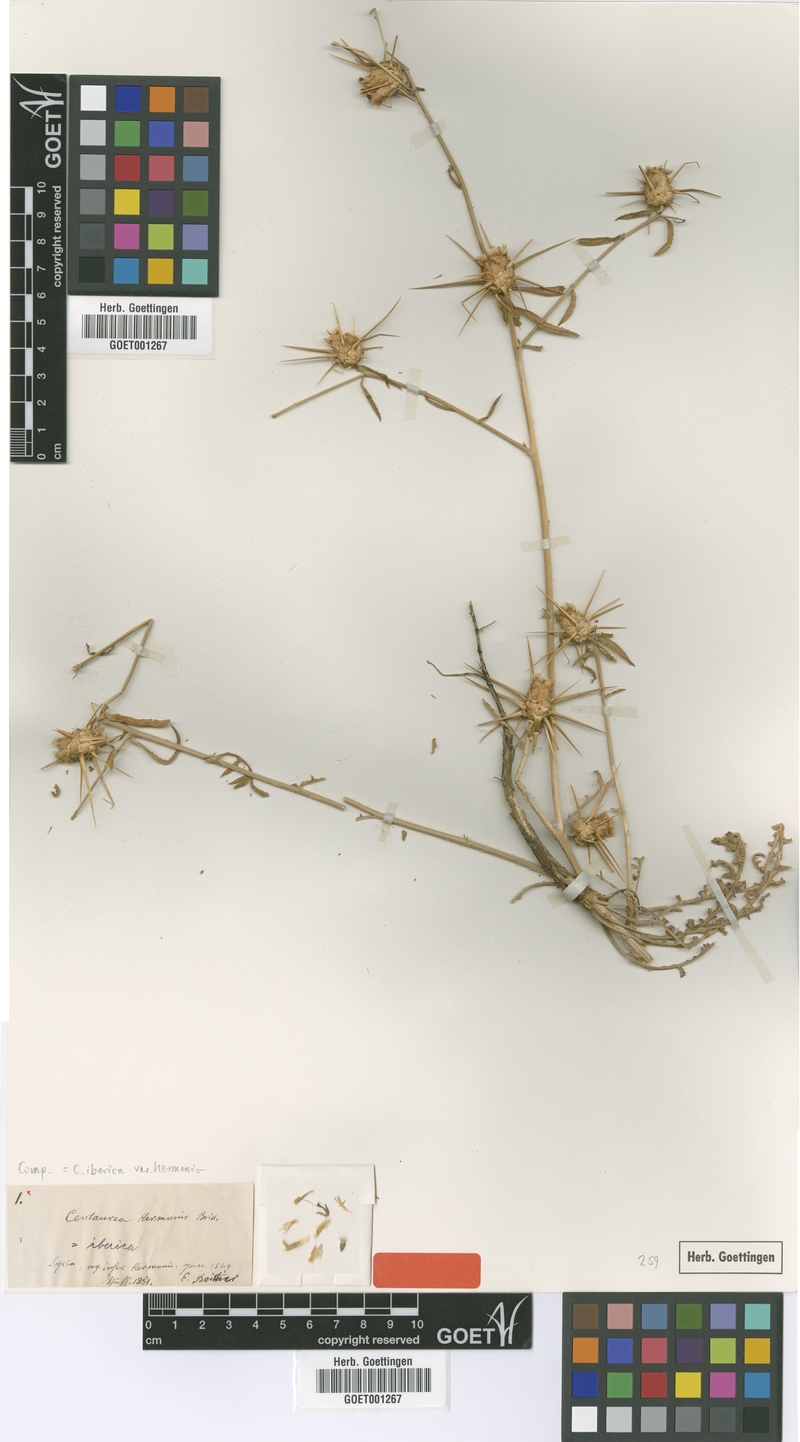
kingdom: Plantae
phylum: Tracheophyta
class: Magnoliopsida
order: Asterales
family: Asteraceae
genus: Centaurea
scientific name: Centaurea iberica
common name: Iberian knapweed
